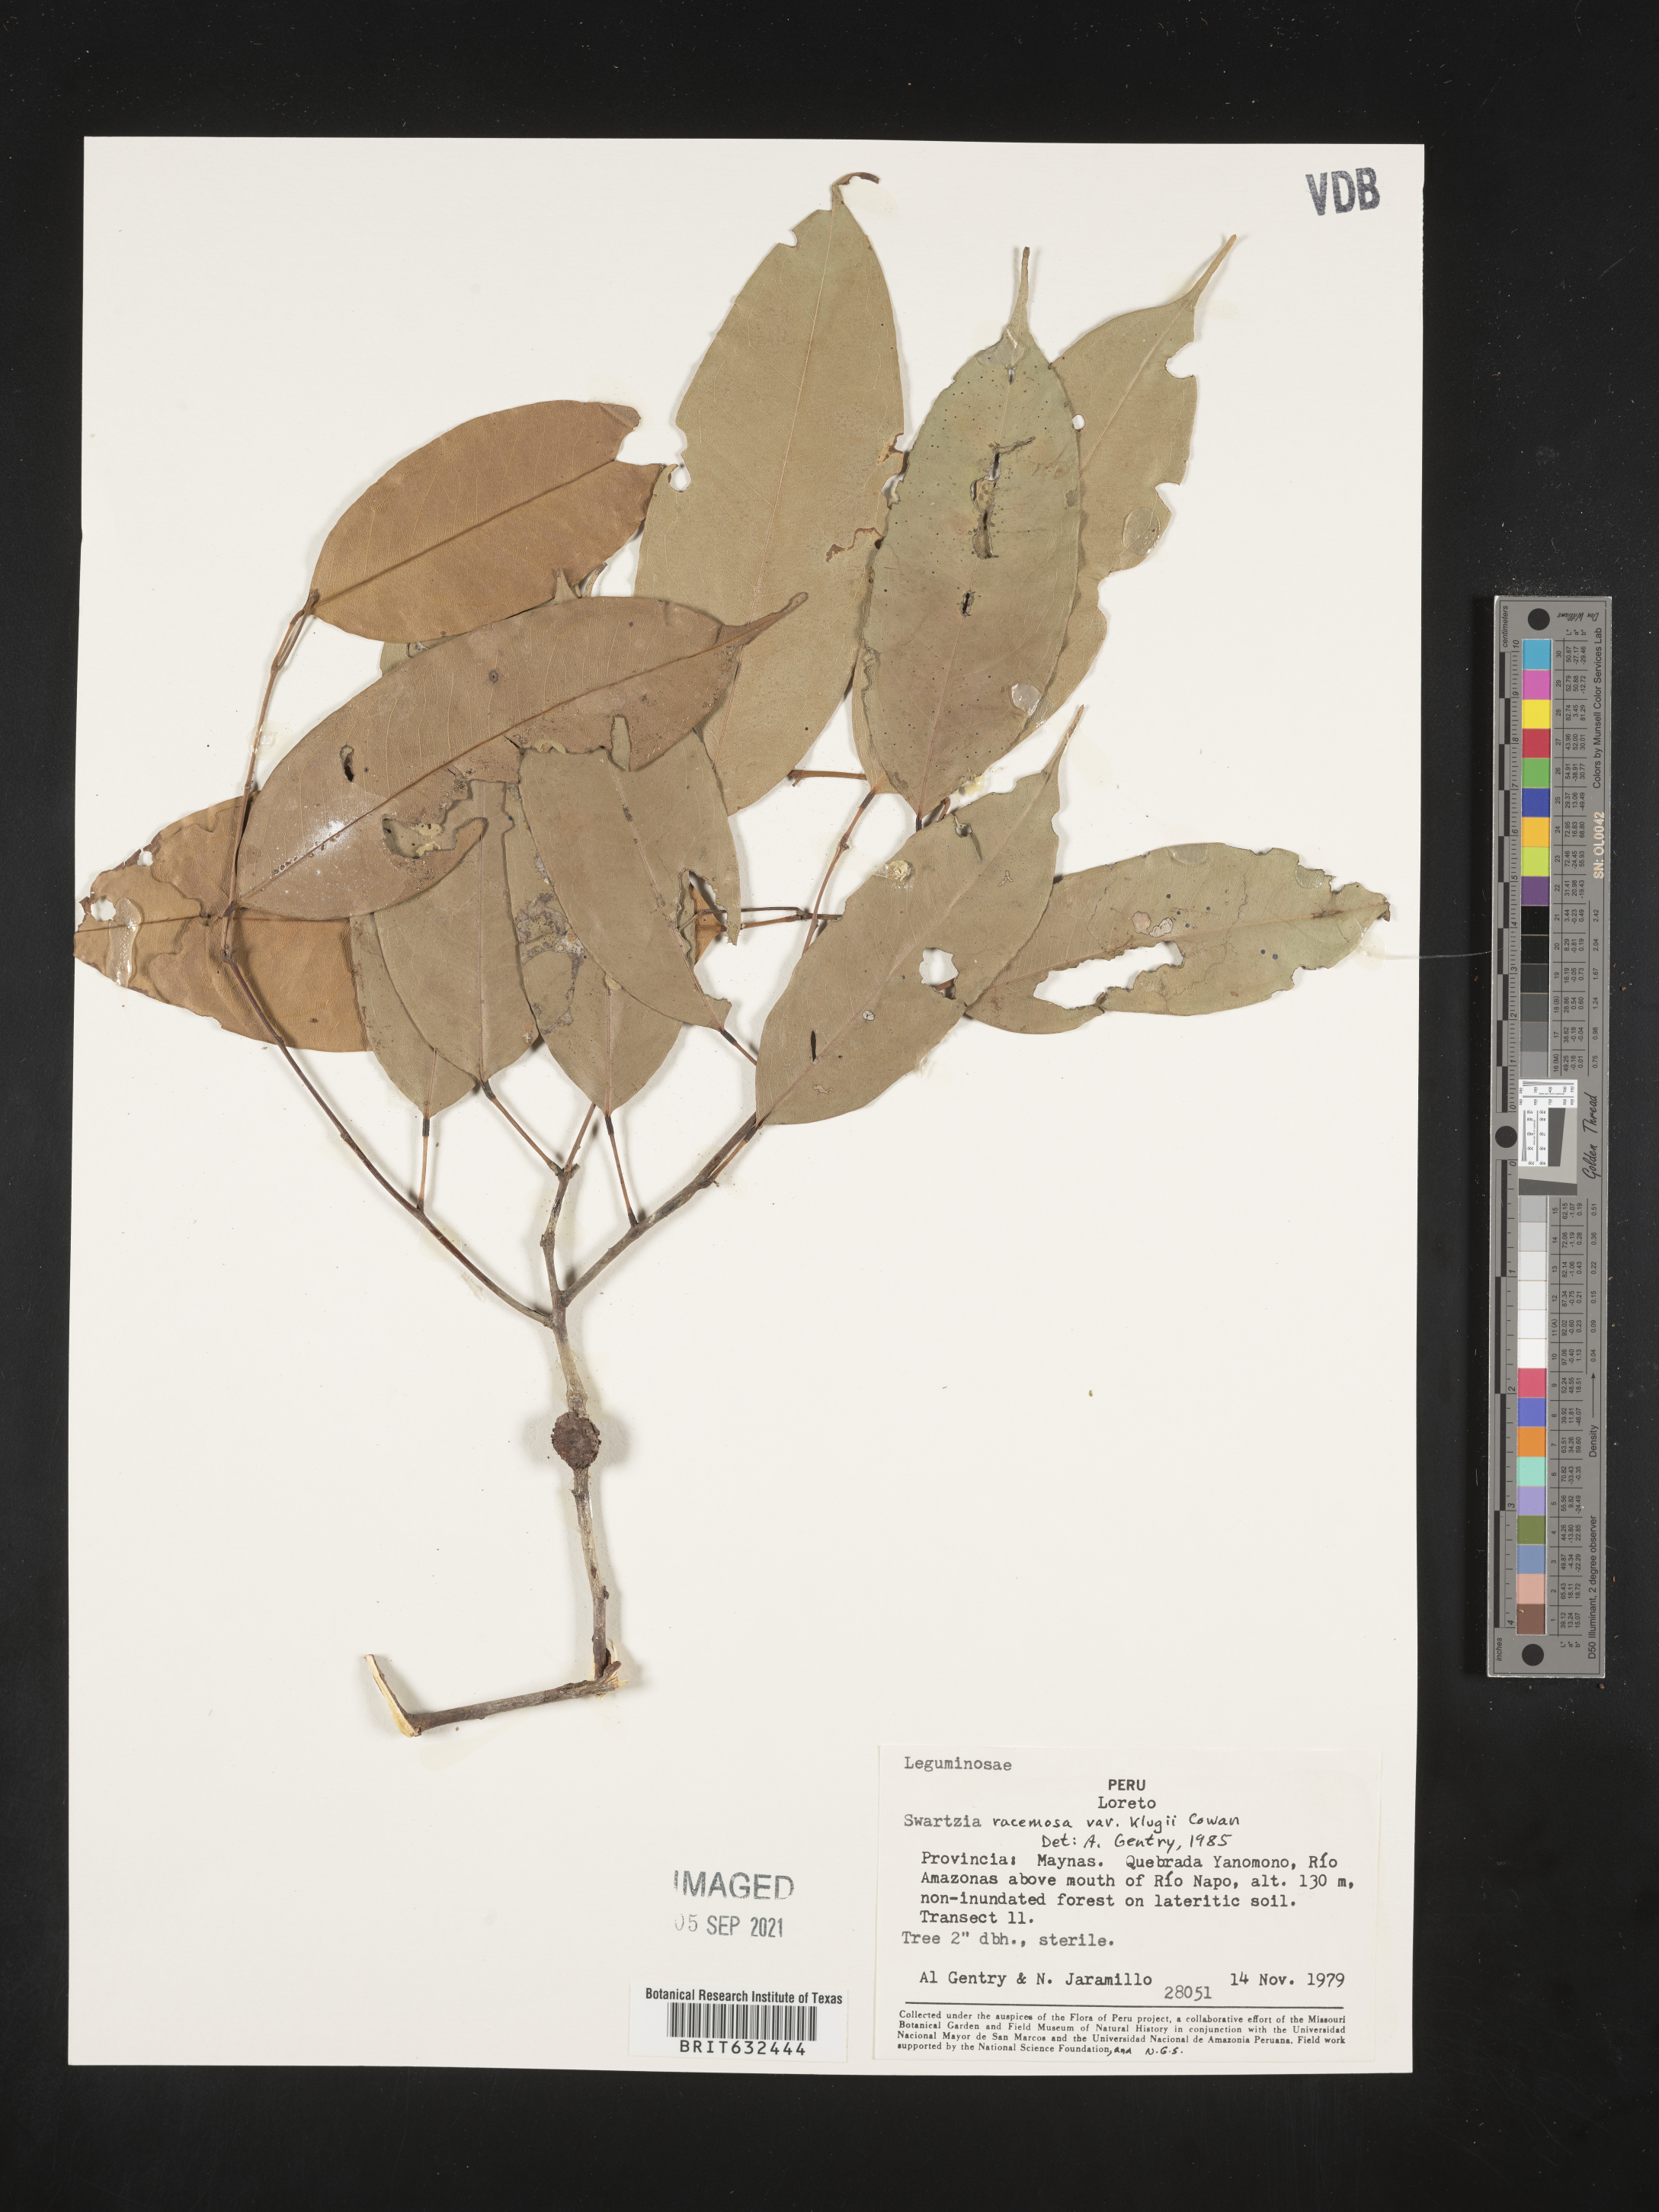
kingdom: Plantae
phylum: Tracheophyta
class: Magnoliopsida
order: Fabales
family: Fabaceae
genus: Swartzia
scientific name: Swartzia
